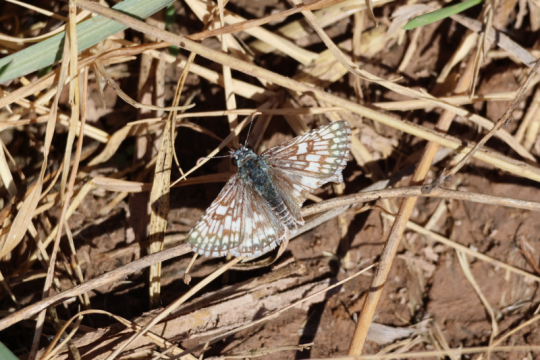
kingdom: Animalia
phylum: Arthropoda
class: Insecta
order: Lepidoptera
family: Hesperiidae
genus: Pyrgus
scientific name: Pyrgus communis
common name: Common Checkered-Skipper
